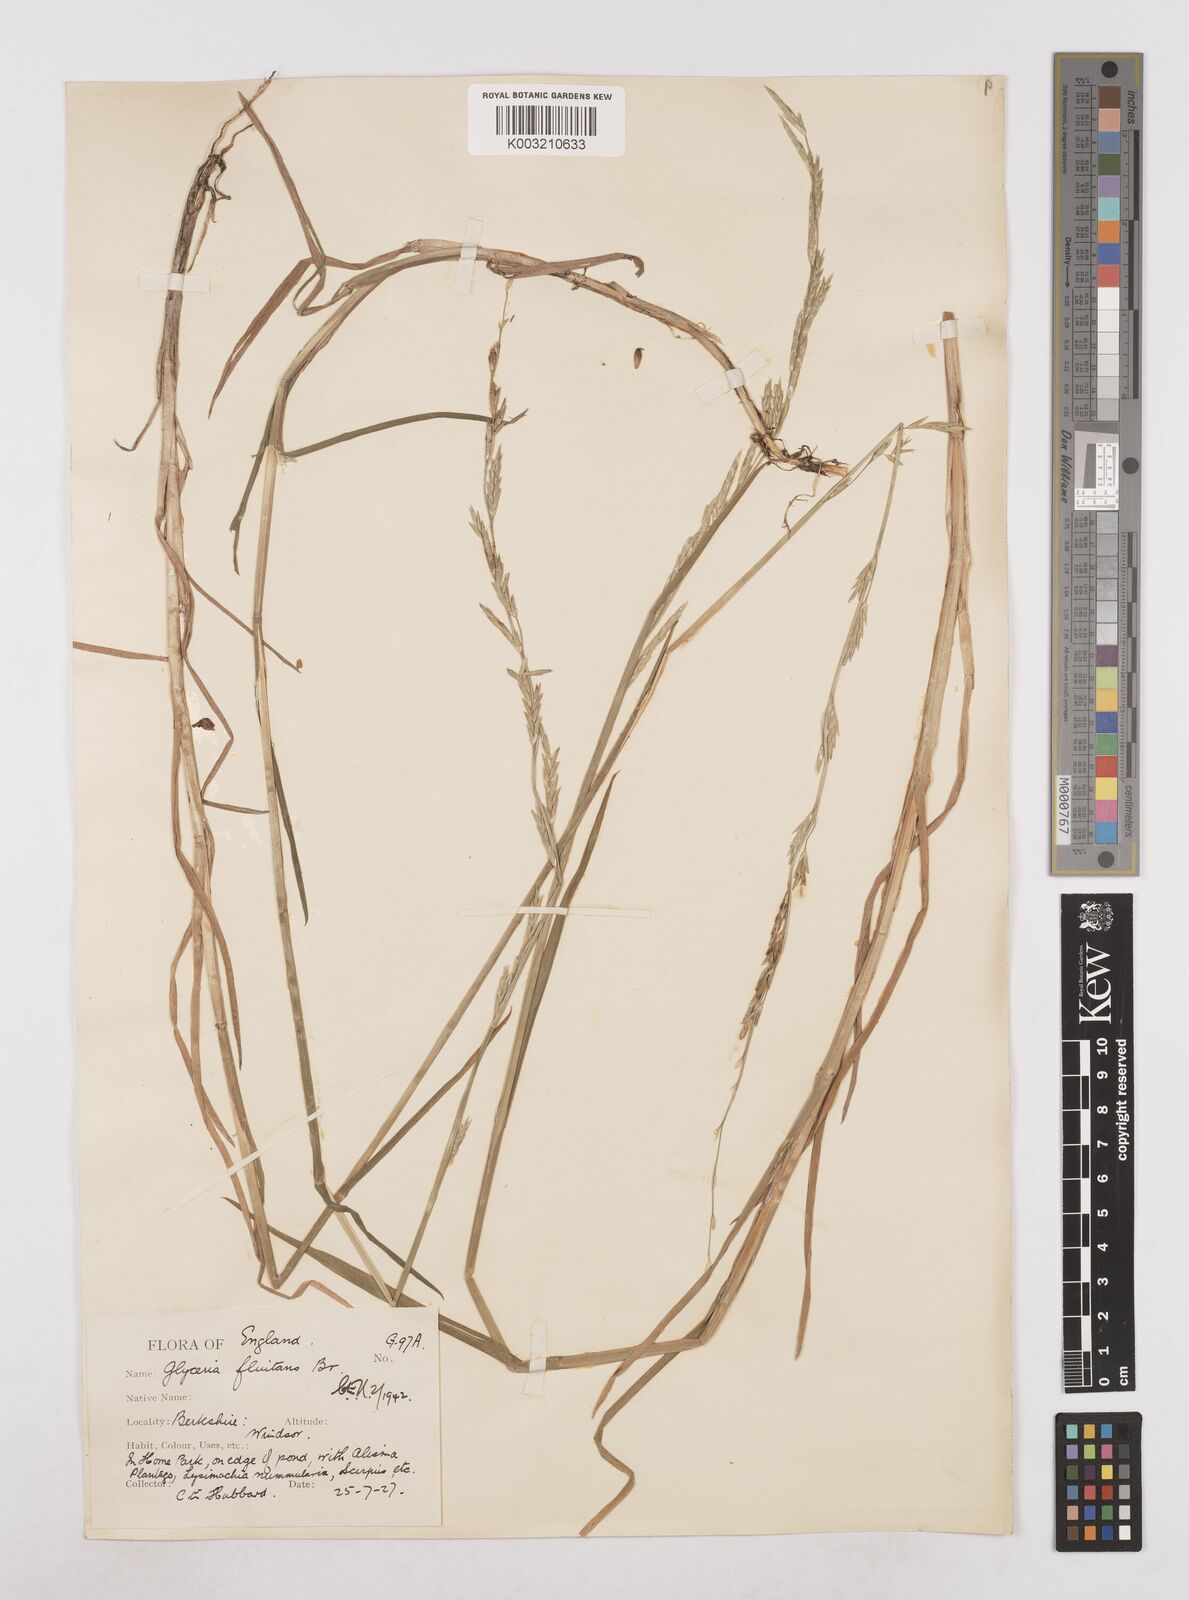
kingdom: Plantae
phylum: Tracheophyta
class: Liliopsida
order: Poales
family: Poaceae
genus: Glyceria
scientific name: Glyceria fluitans
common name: Floating sweet-grass
